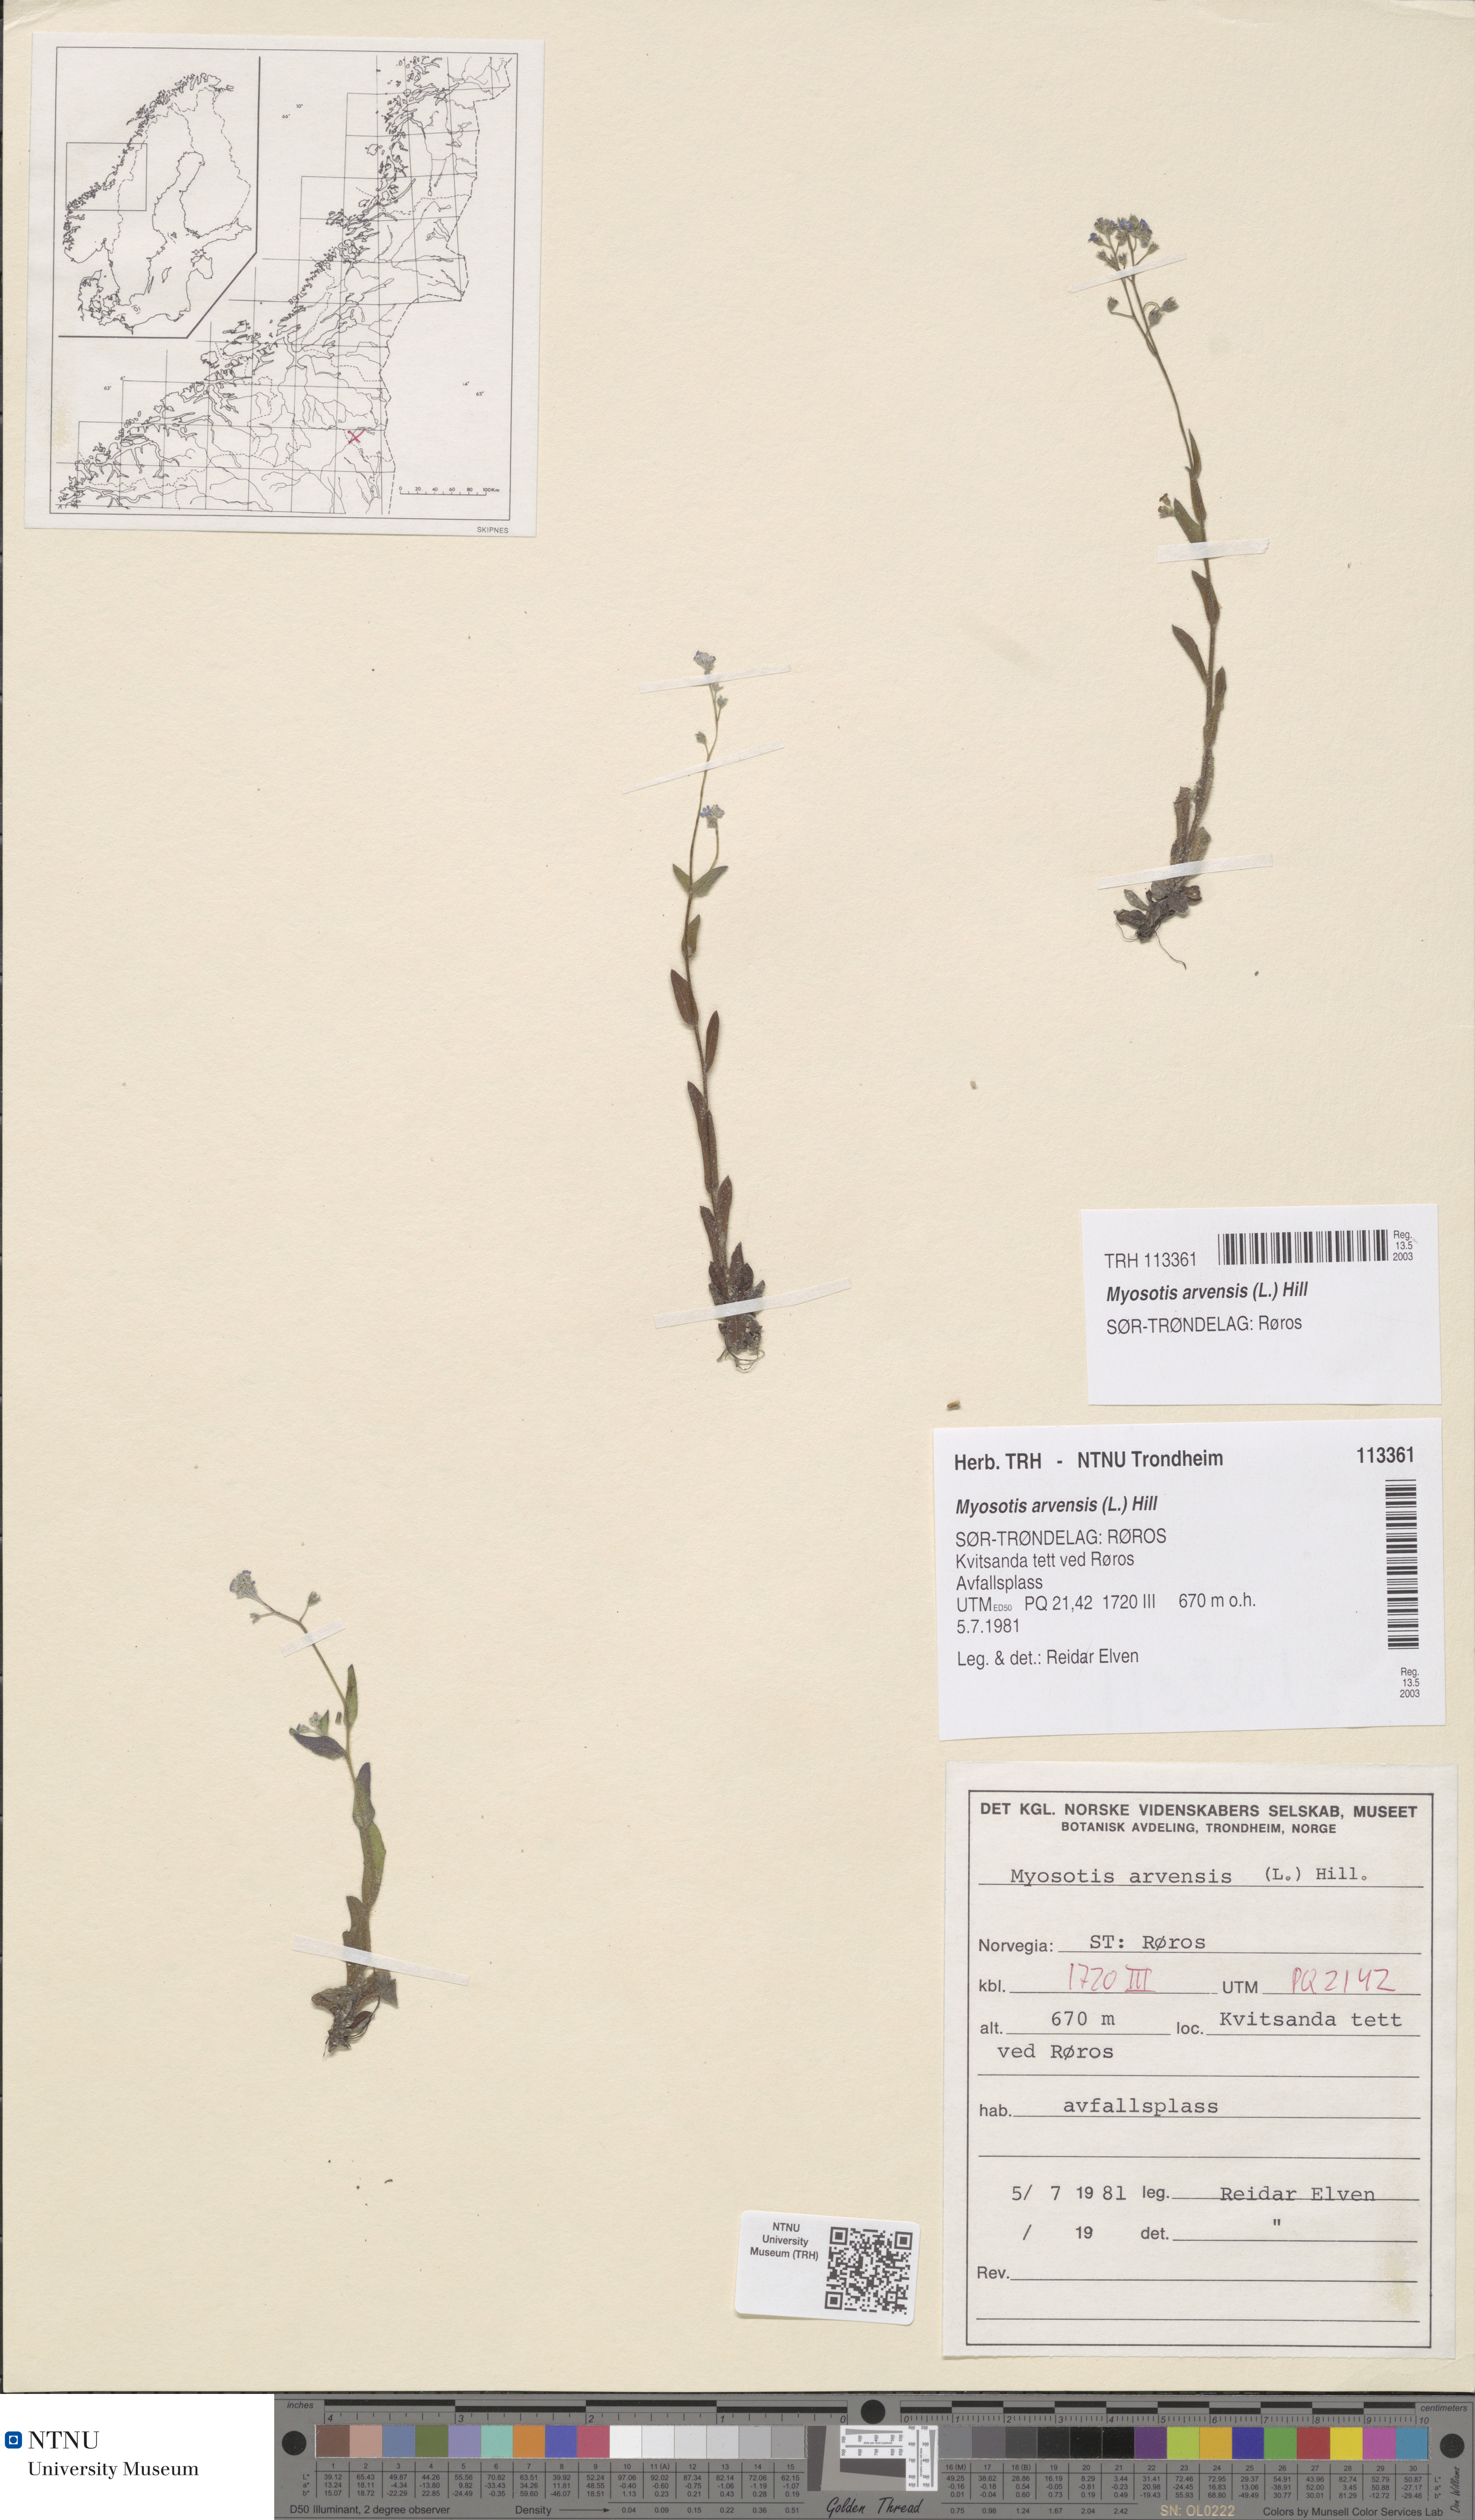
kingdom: Plantae
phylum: Tracheophyta
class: Magnoliopsida
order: Boraginales
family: Boraginaceae
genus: Myosotis
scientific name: Myosotis arvensis
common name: Field forget-me-not
